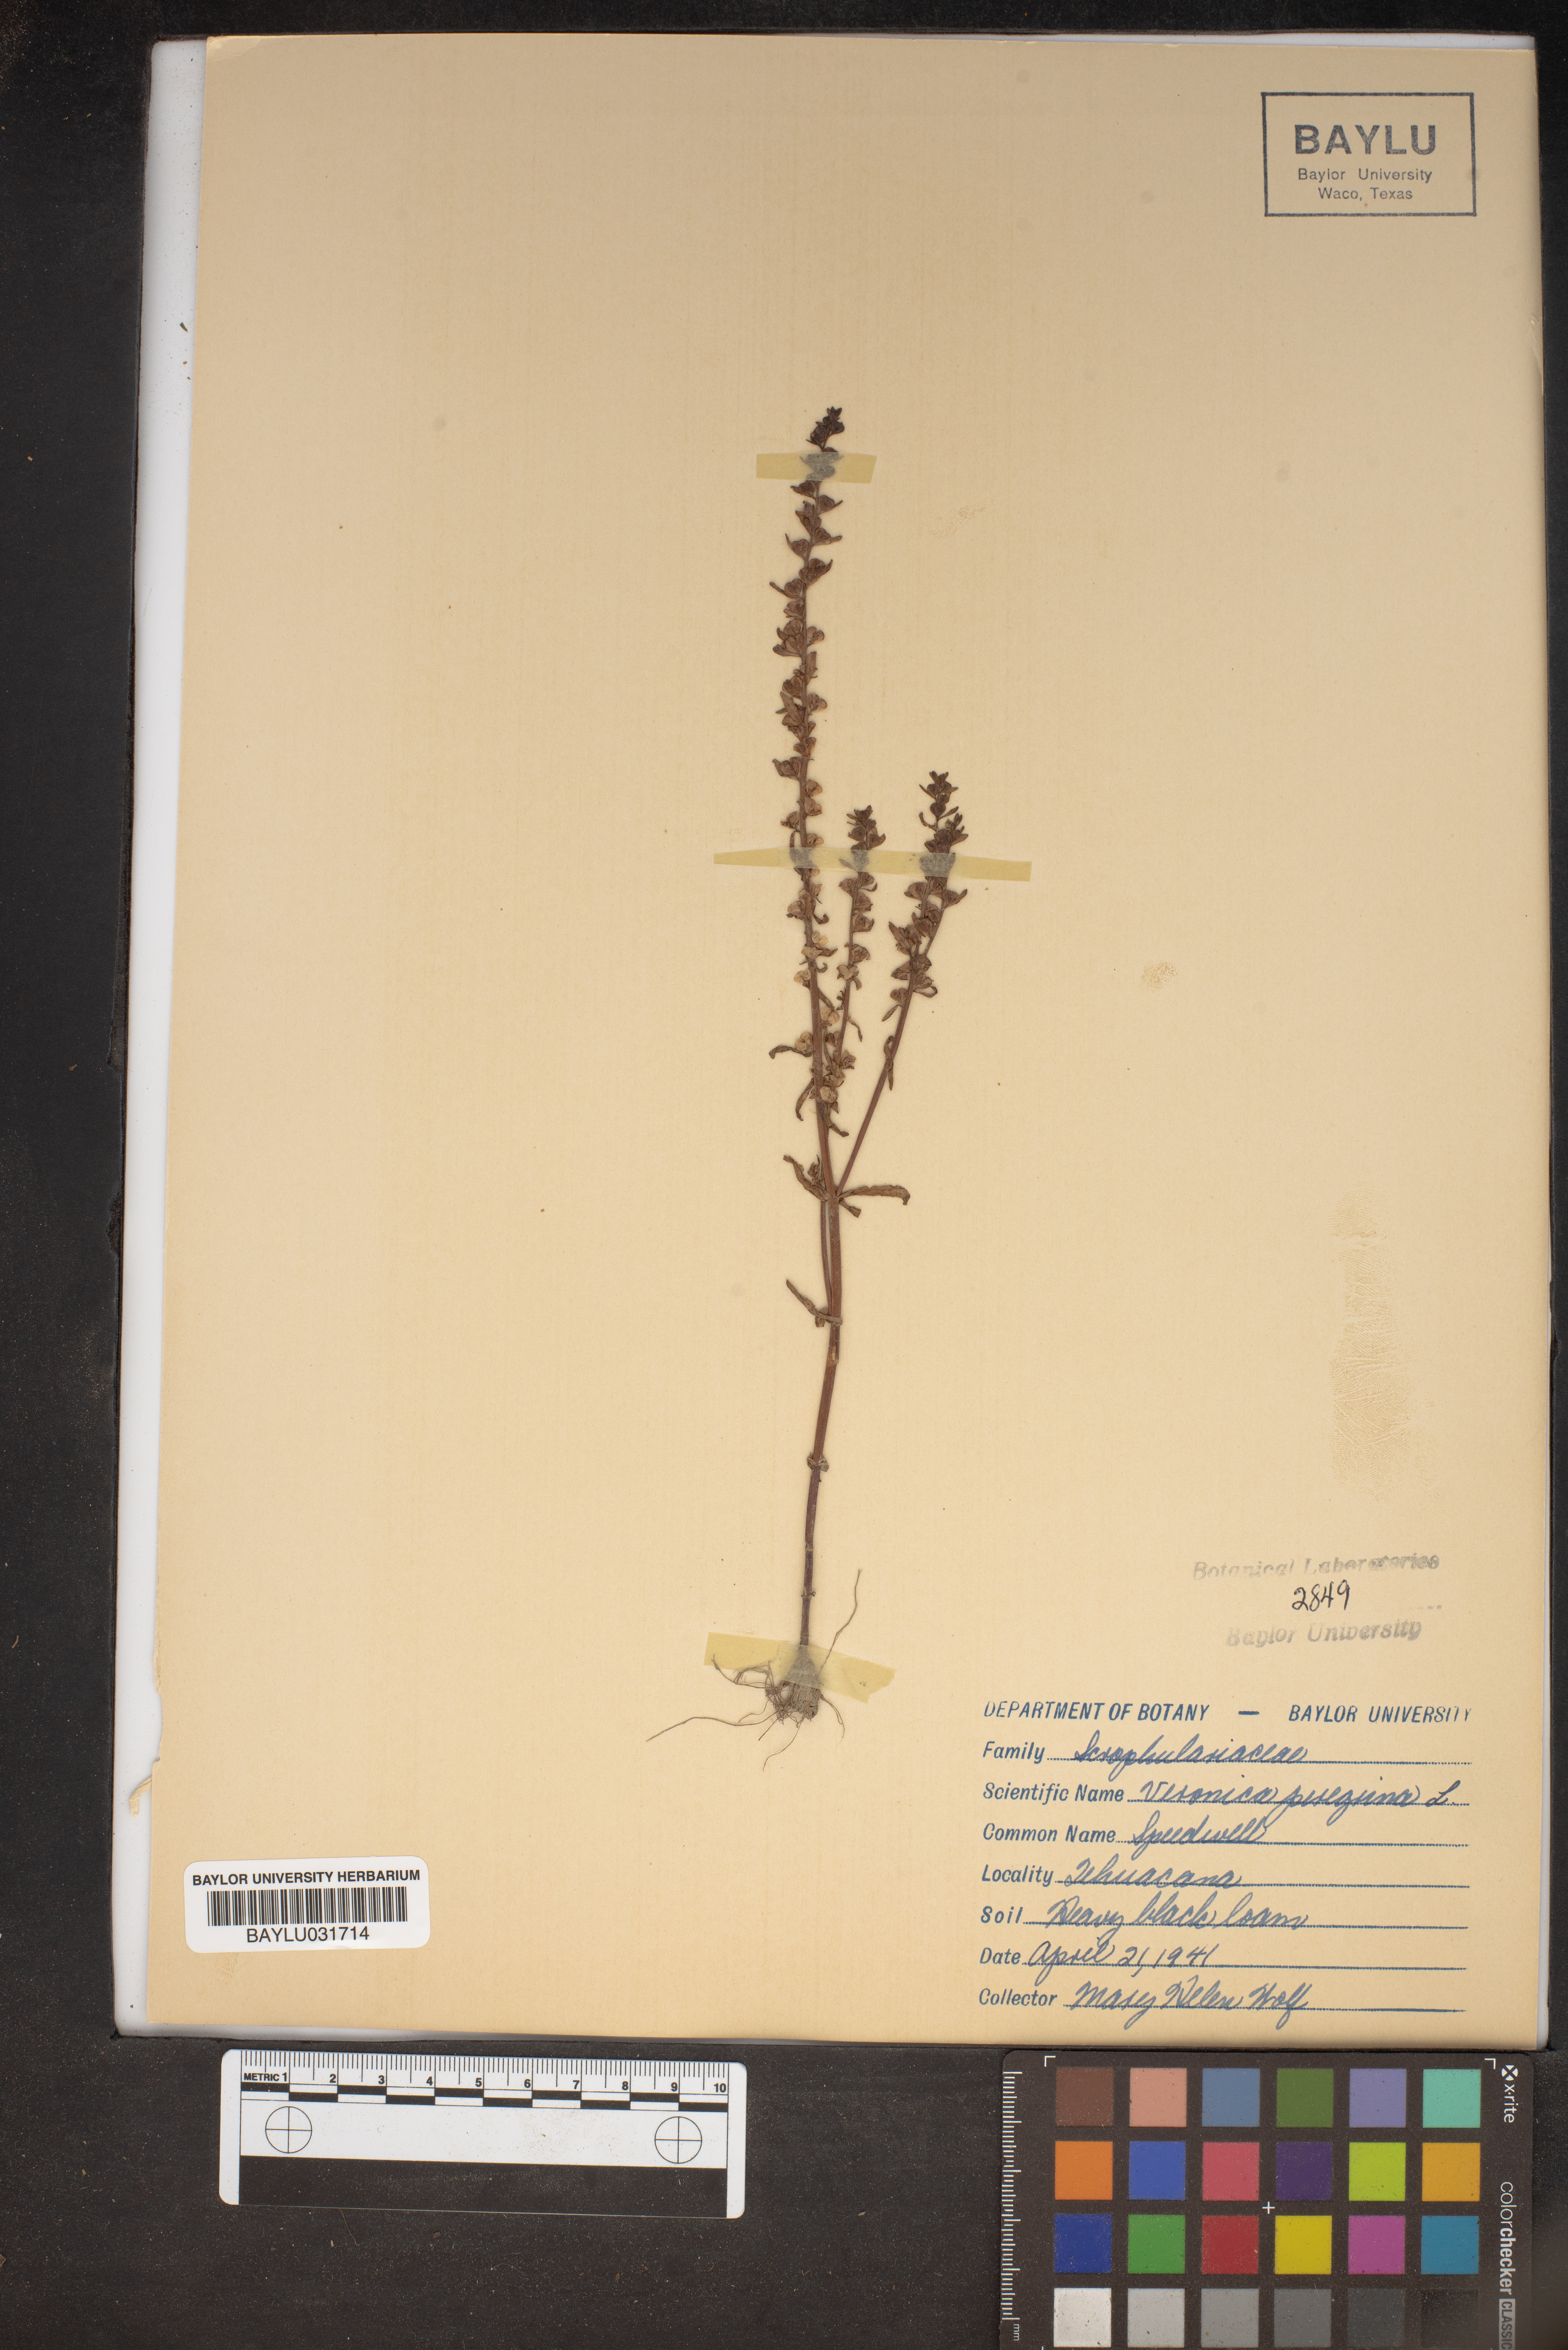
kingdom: Plantae
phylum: Tracheophyta
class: Magnoliopsida
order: Lamiales
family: Plantaginaceae
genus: Veronica
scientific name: Veronica
